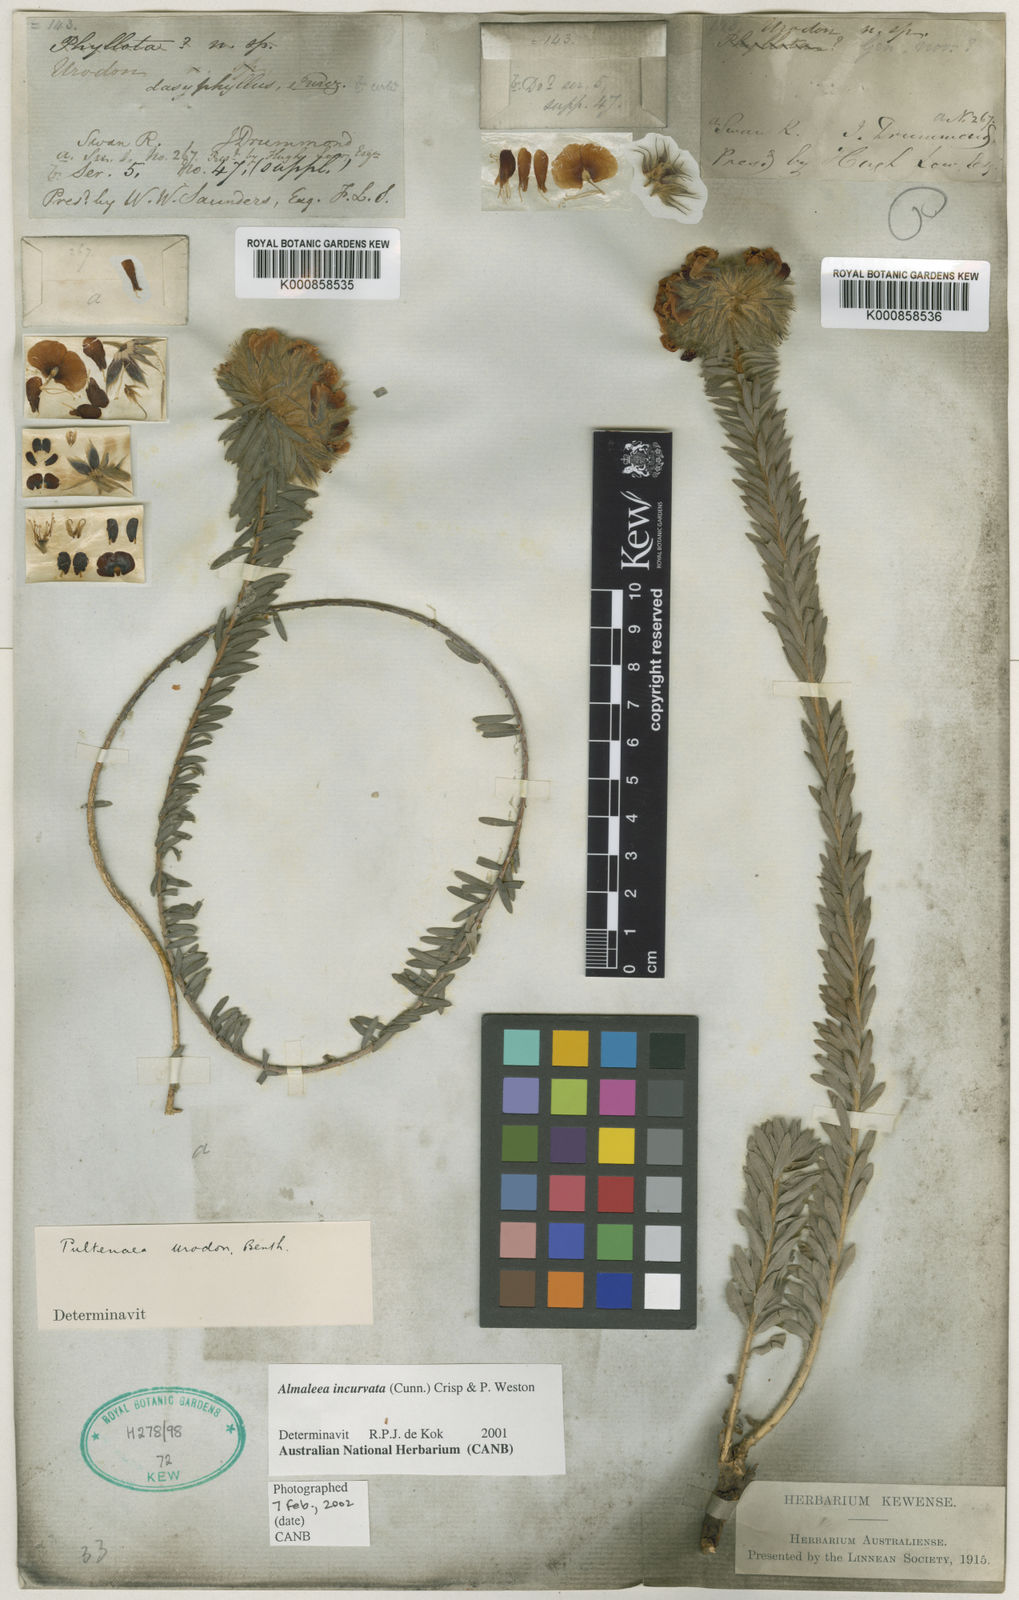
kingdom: Plantae
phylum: Tracheophyta
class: Magnoliopsida
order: Fabales
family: Fabaceae
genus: Almaleea
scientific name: Almaleea incurvata
